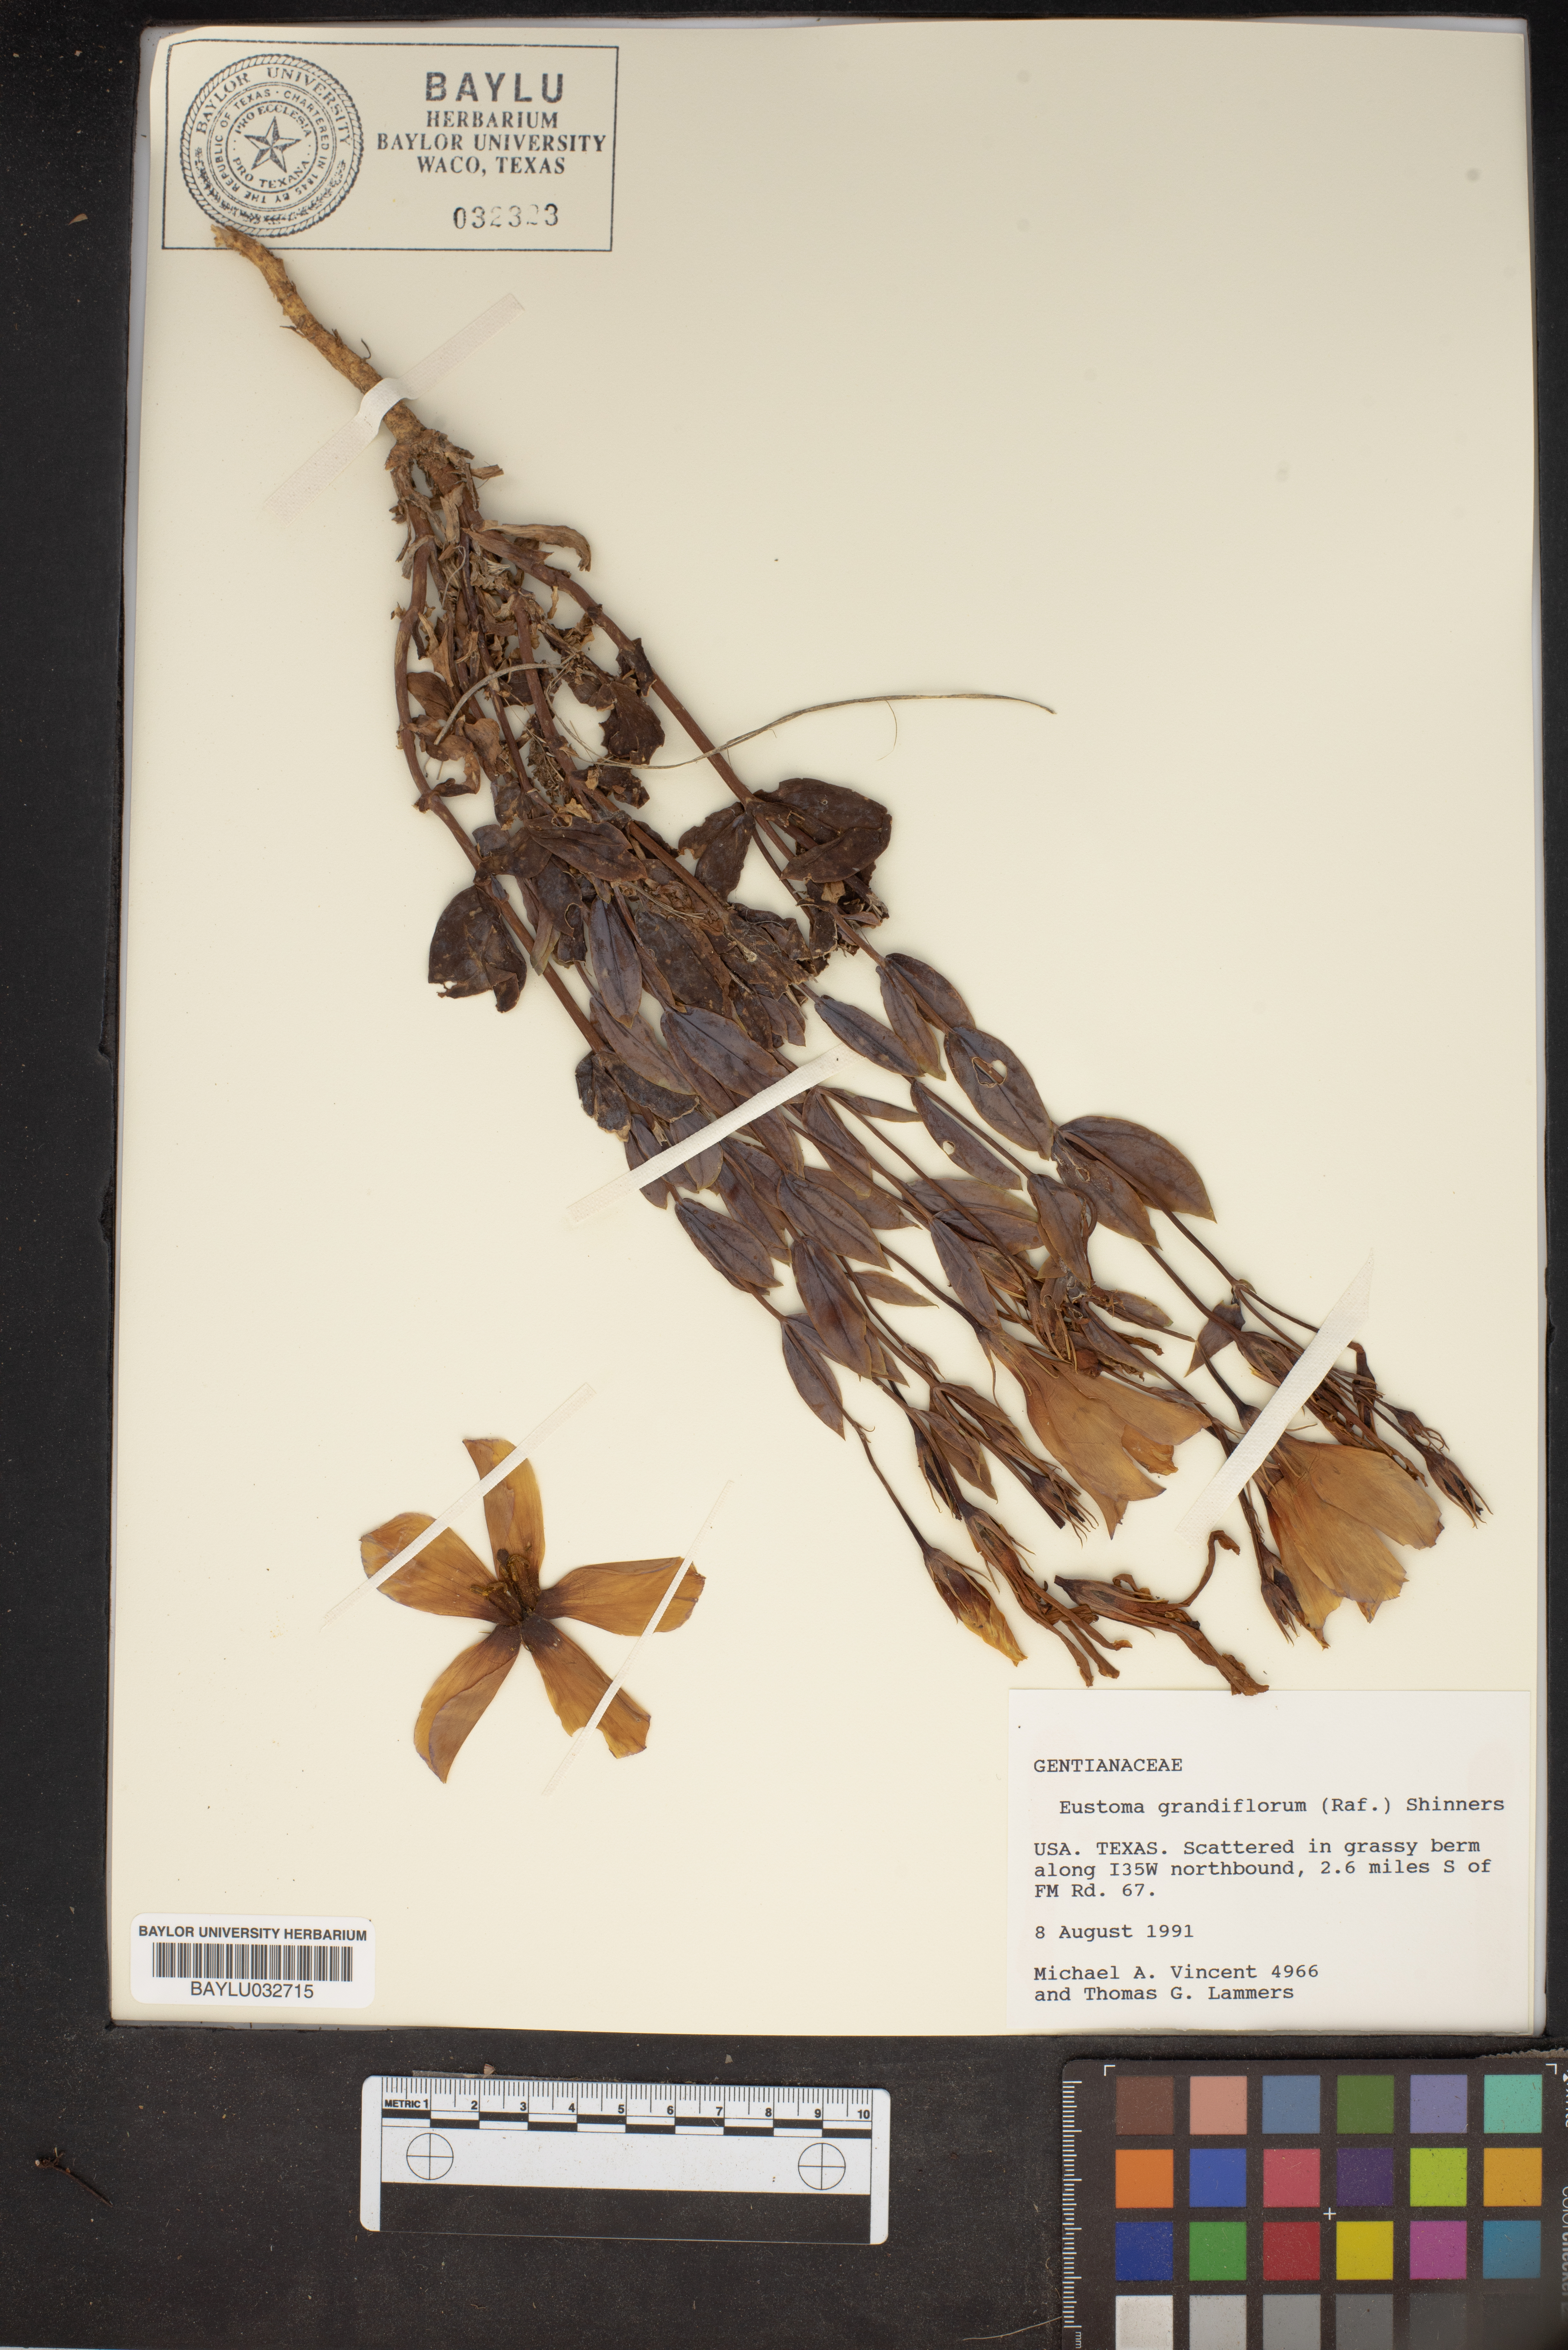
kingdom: Plantae
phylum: Tracheophyta
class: Magnoliopsida
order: Gentianales
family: Gentianaceae
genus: Eustoma
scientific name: Eustoma russellianum
